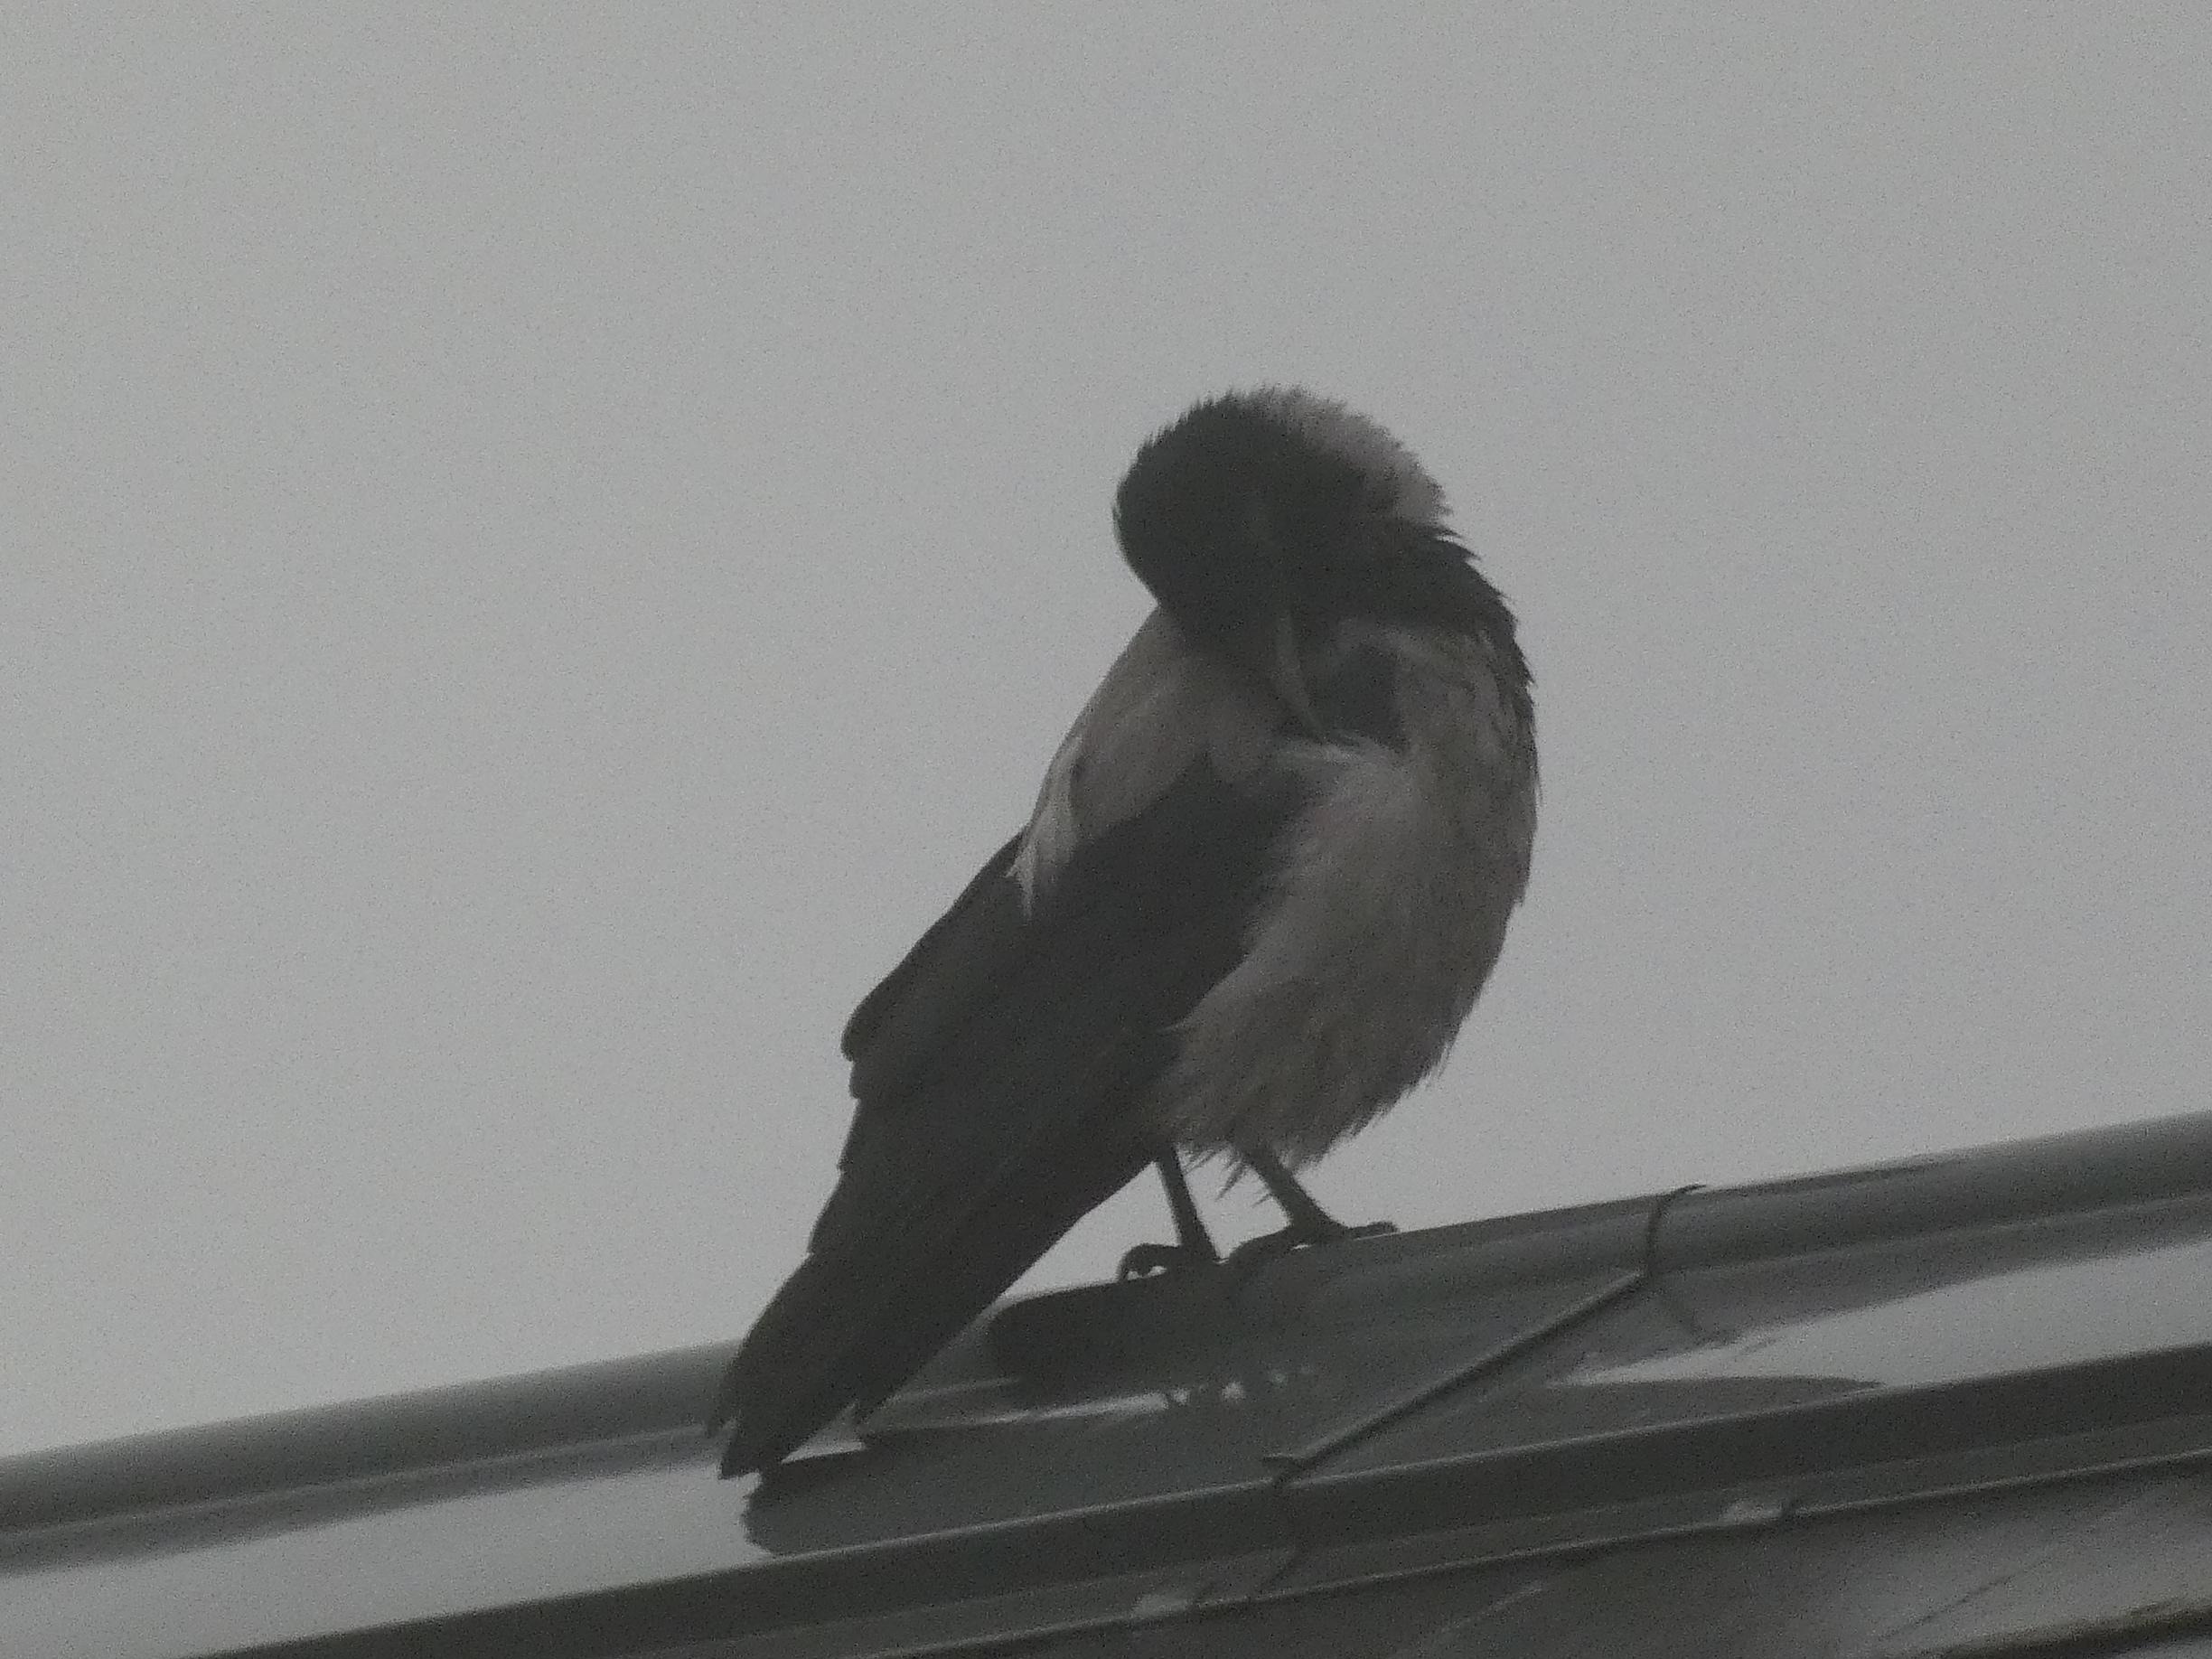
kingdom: Animalia
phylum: Chordata
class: Aves
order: Passeriformes
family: Corvidae
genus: Corvus
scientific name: Corvus cornix
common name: Gråkrage
